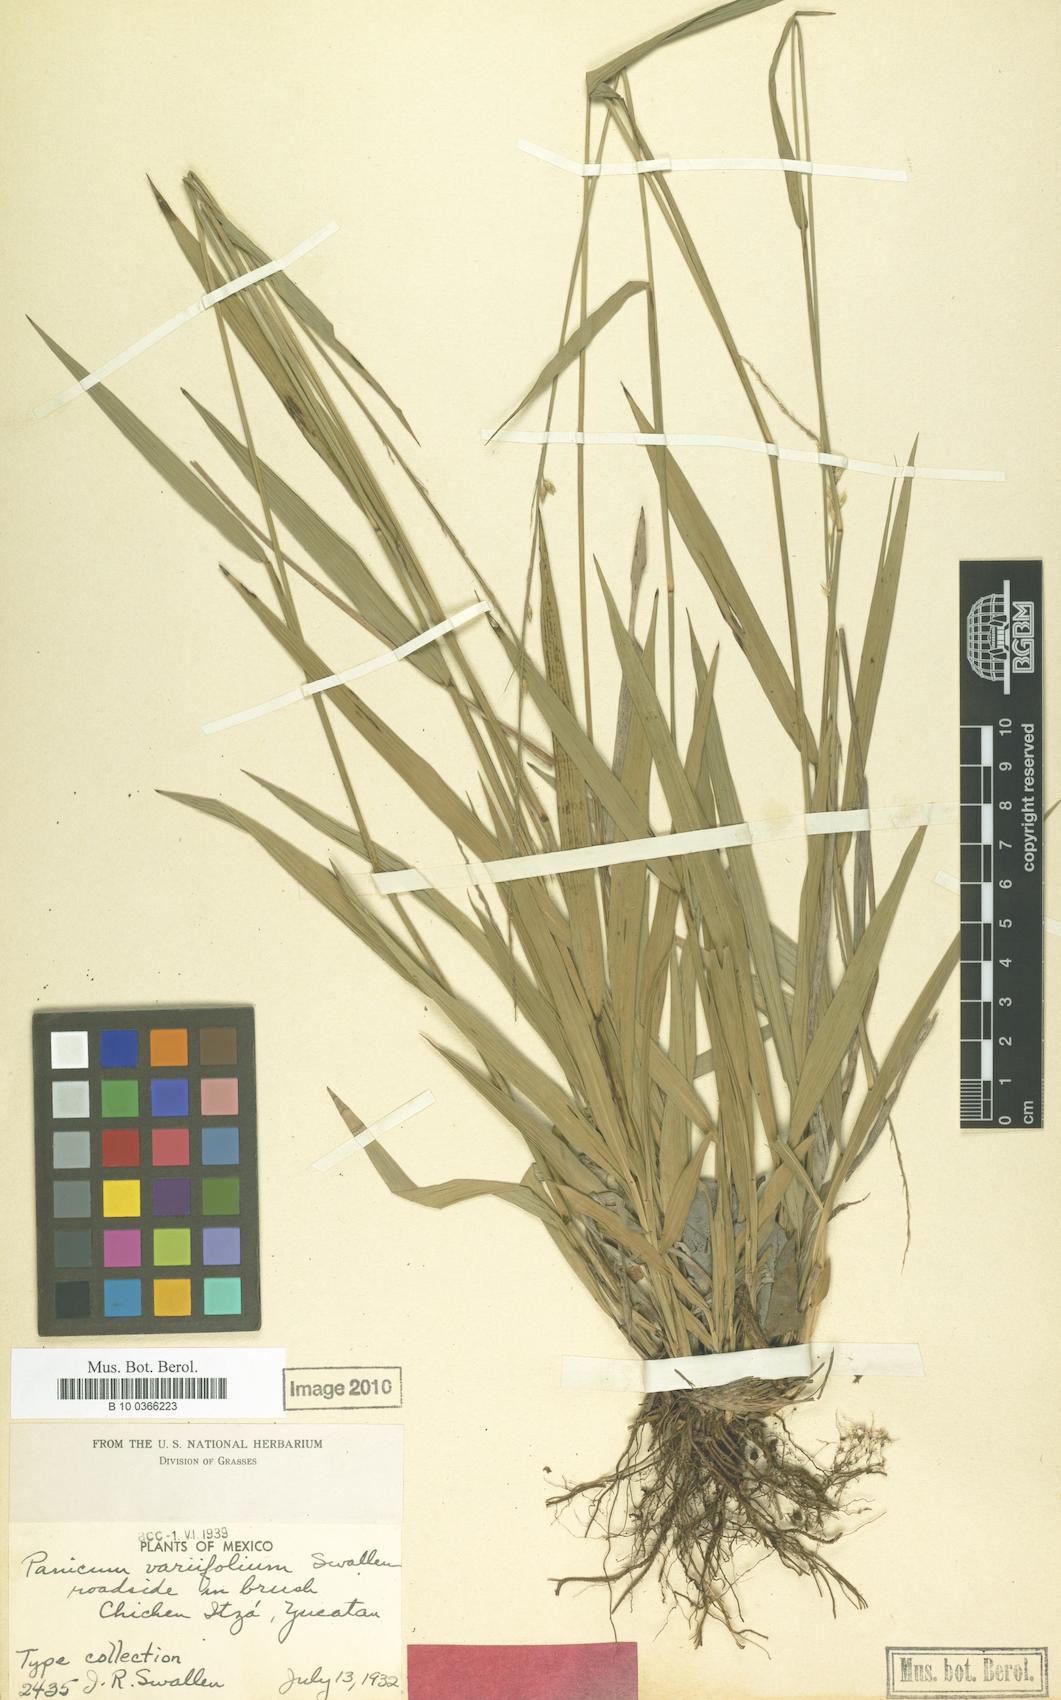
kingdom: Plantae
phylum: Tracheophyta
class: Liliopsida
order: Poales
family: Poaceae
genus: Setaria
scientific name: Setaria variifolia
